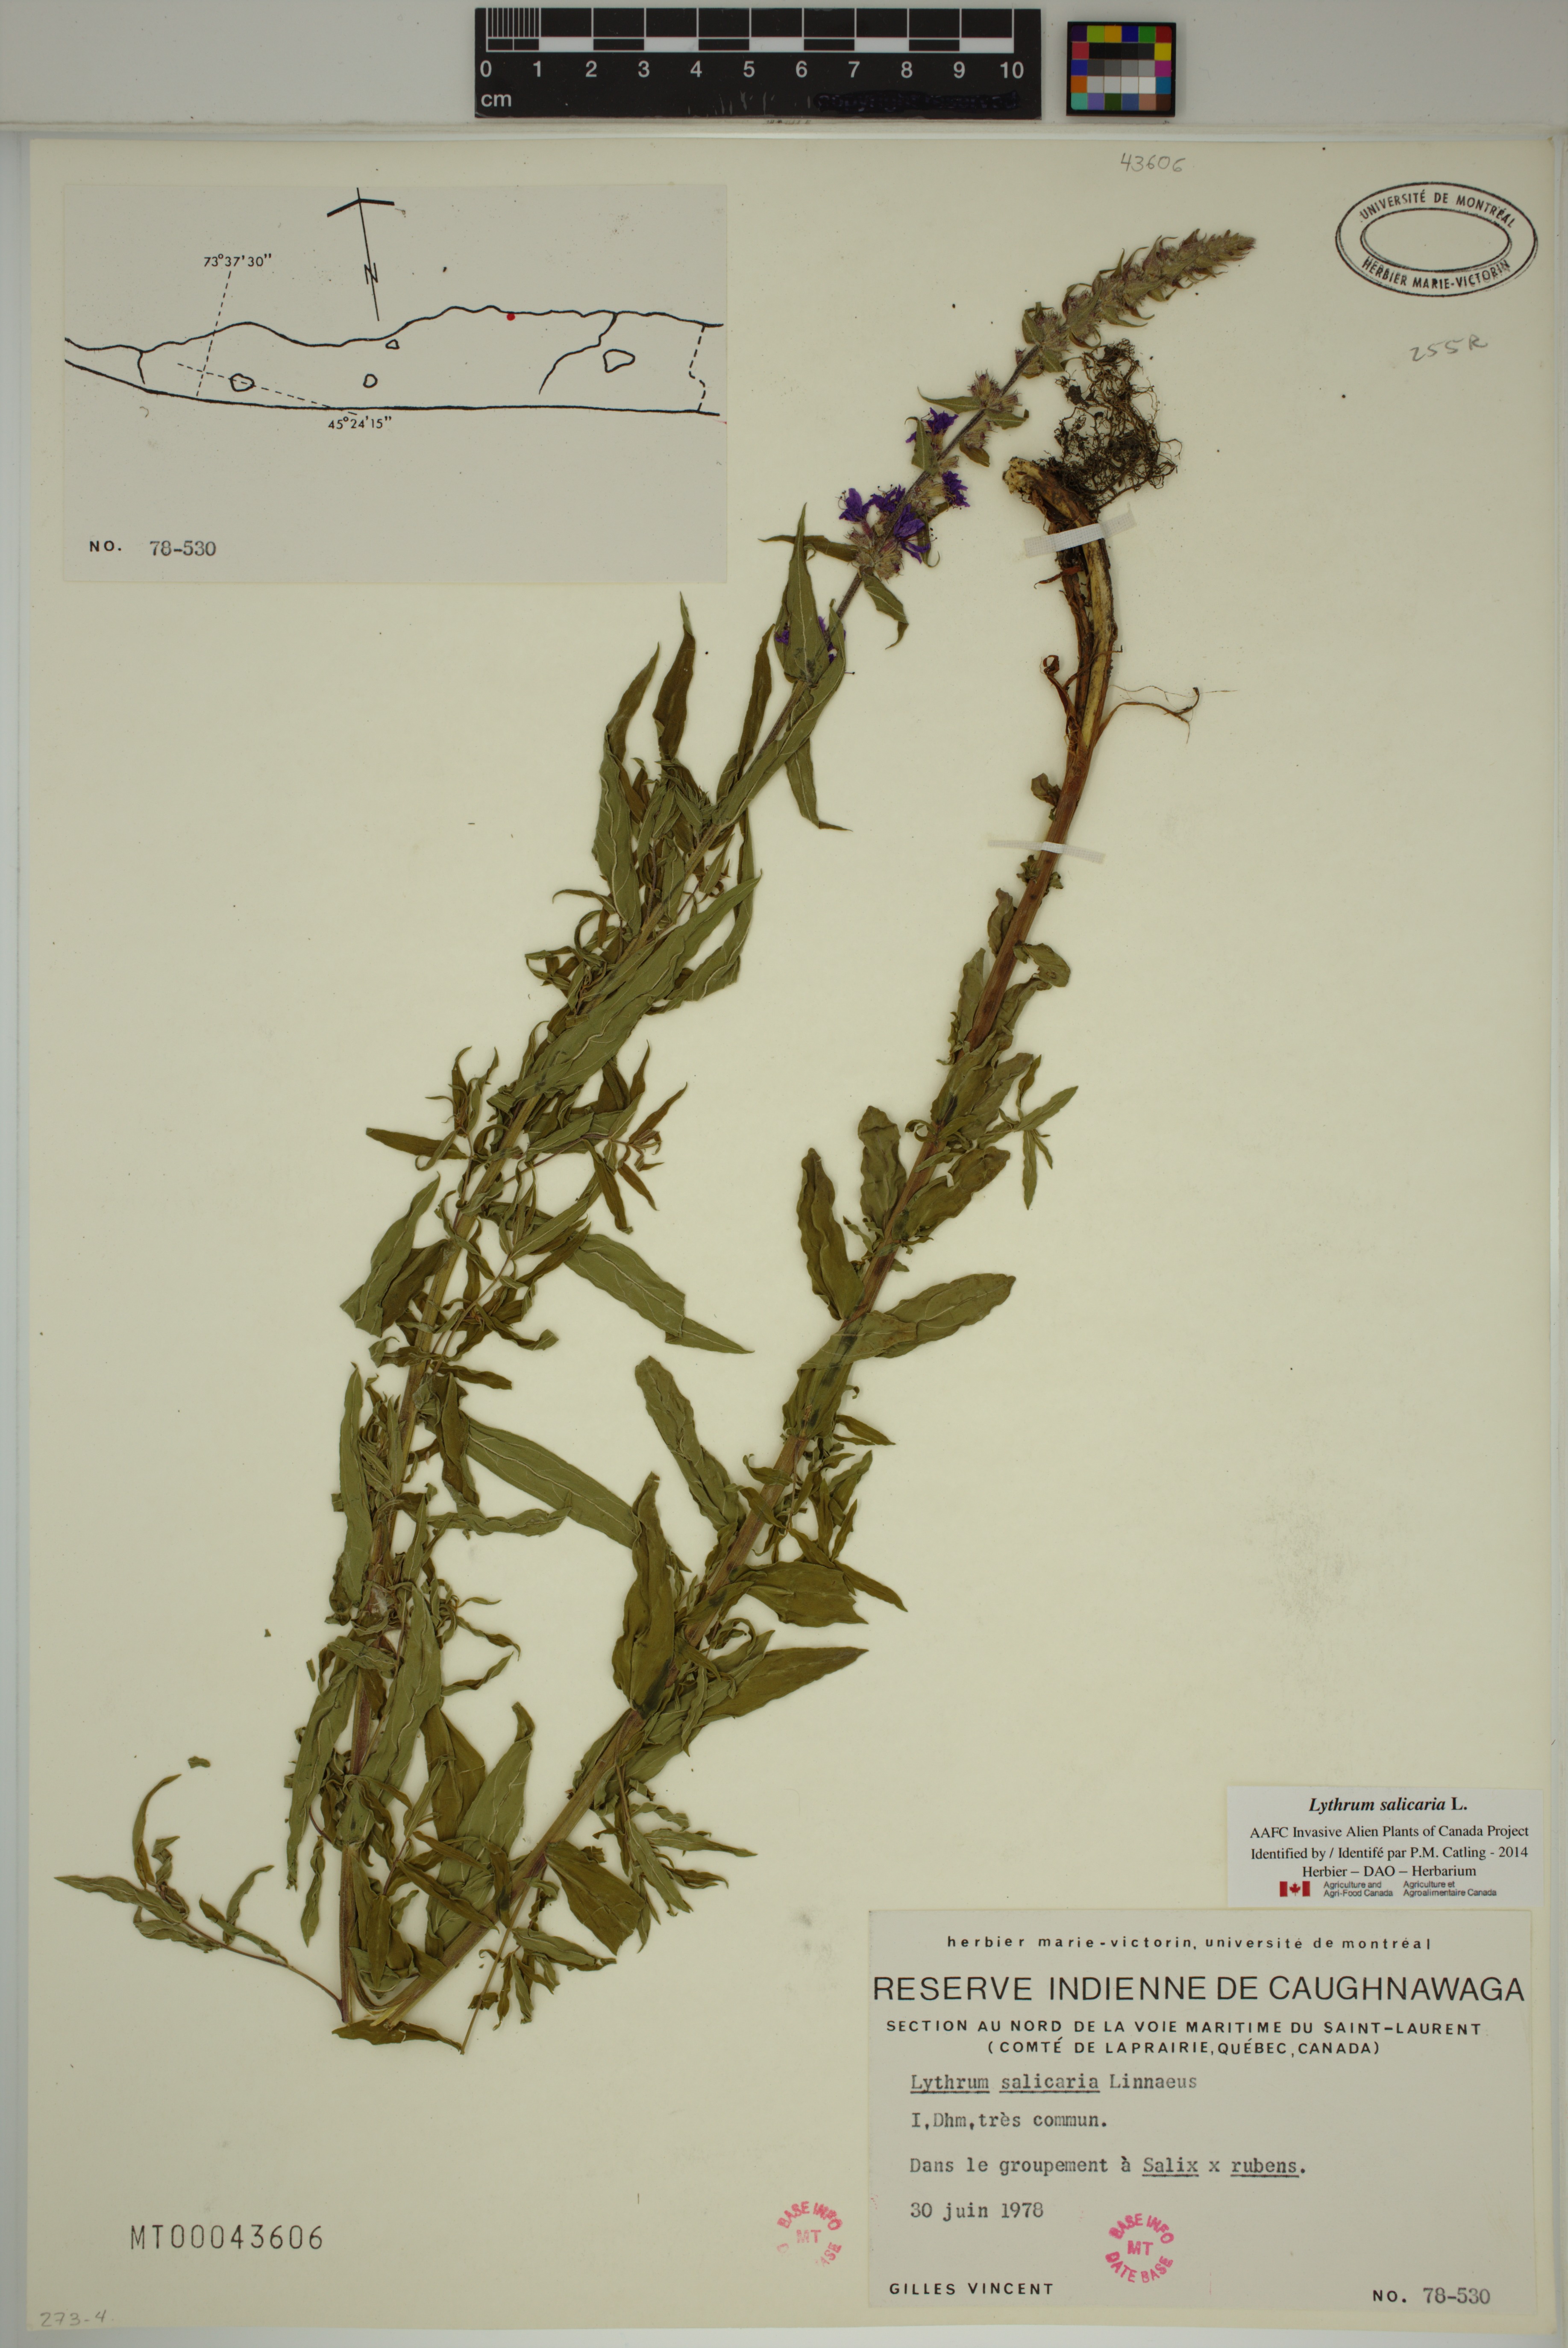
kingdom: Plantae
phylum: Tracheophyta
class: Magnoliopsida
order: Myrtales
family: Lythraceae
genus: Lythrum
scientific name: Lythrum salicaria
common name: Purple loosestrife
